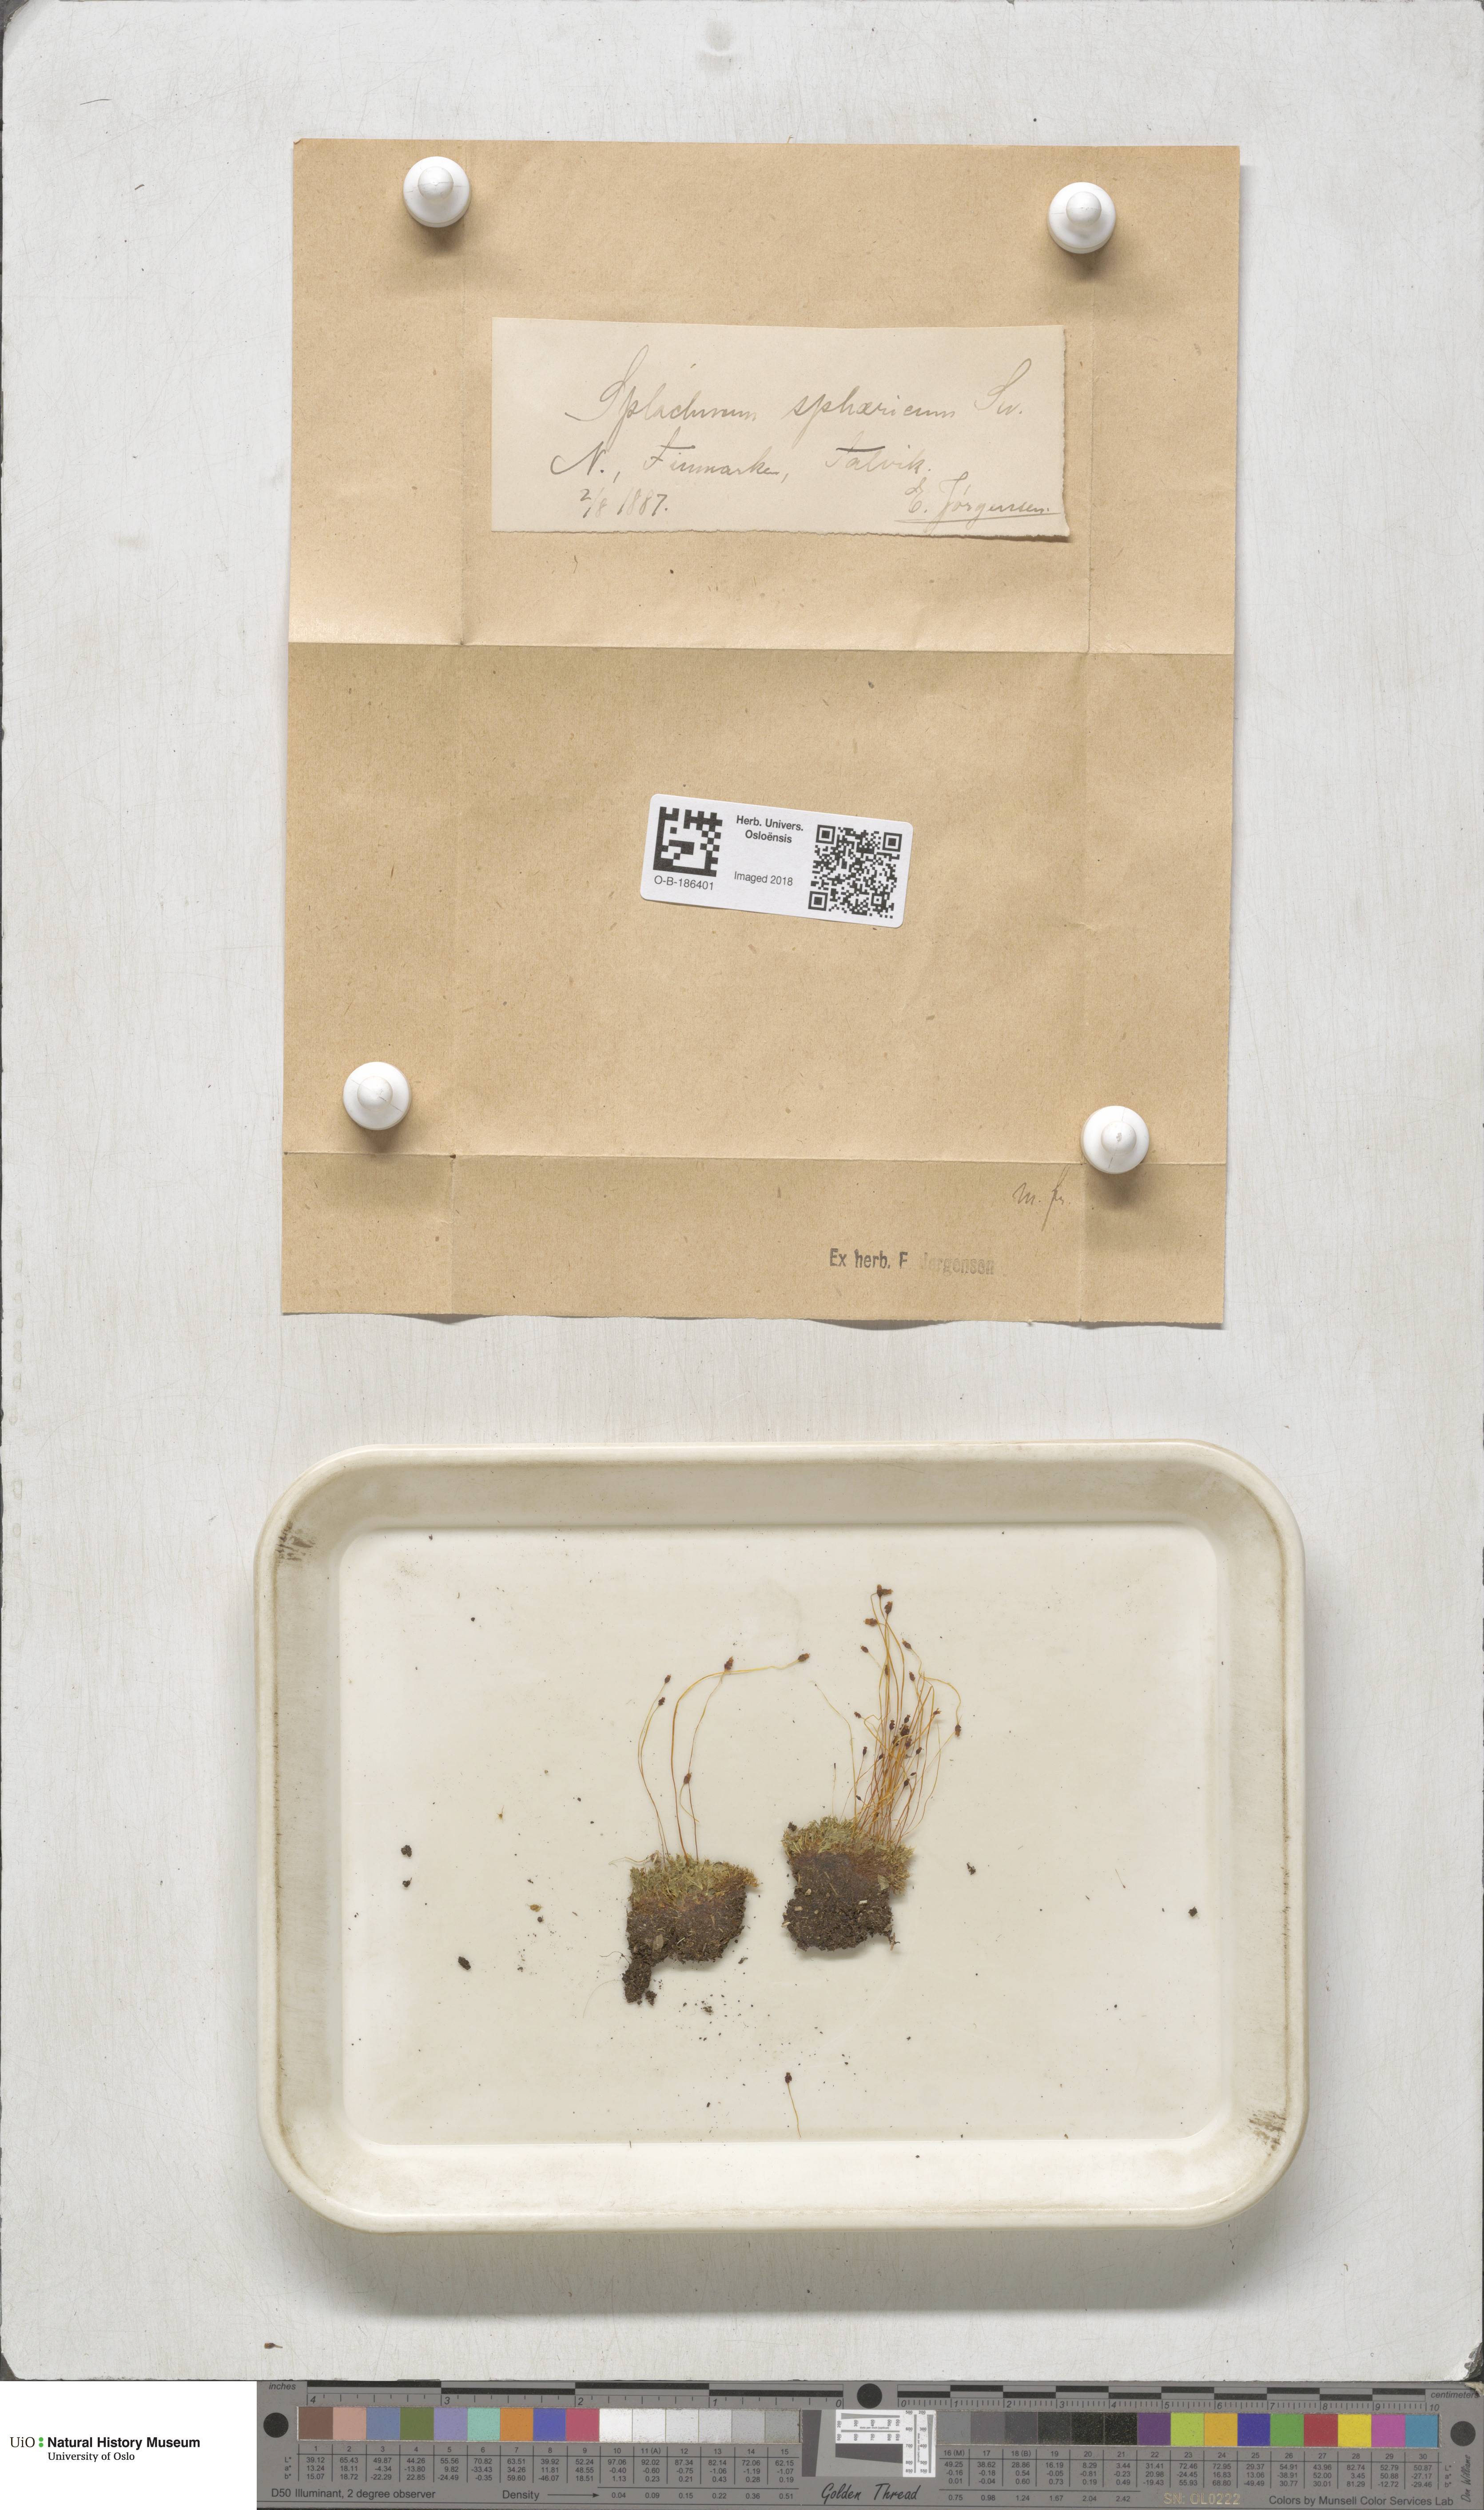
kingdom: Plantae
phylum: Bryophyta
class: Bryopsida
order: Splachnales
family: Splachnaceae
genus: Splachnum
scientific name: Splachnum sphaericum
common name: Round-fruited dung moss
